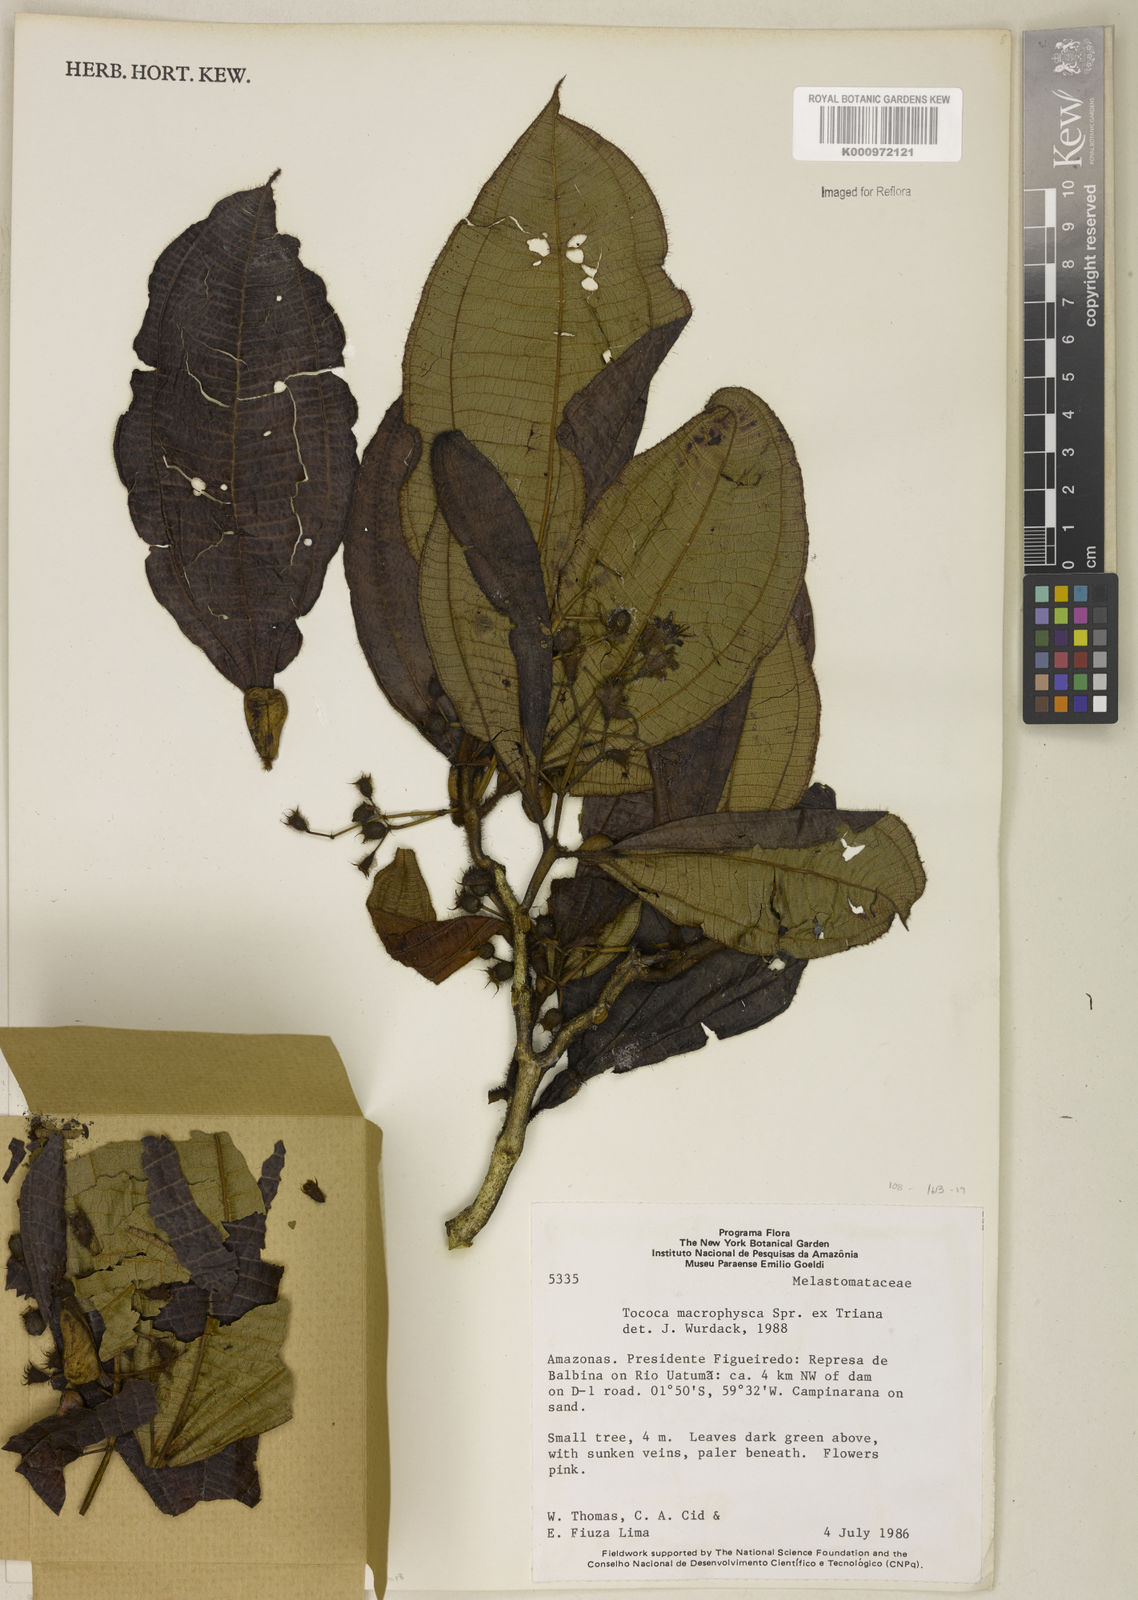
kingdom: Plantae
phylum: Tracheophyta
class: Magnoliopsida
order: Myrtales
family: Melastomataceae
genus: Miconia
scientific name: Miconia macrophysca
